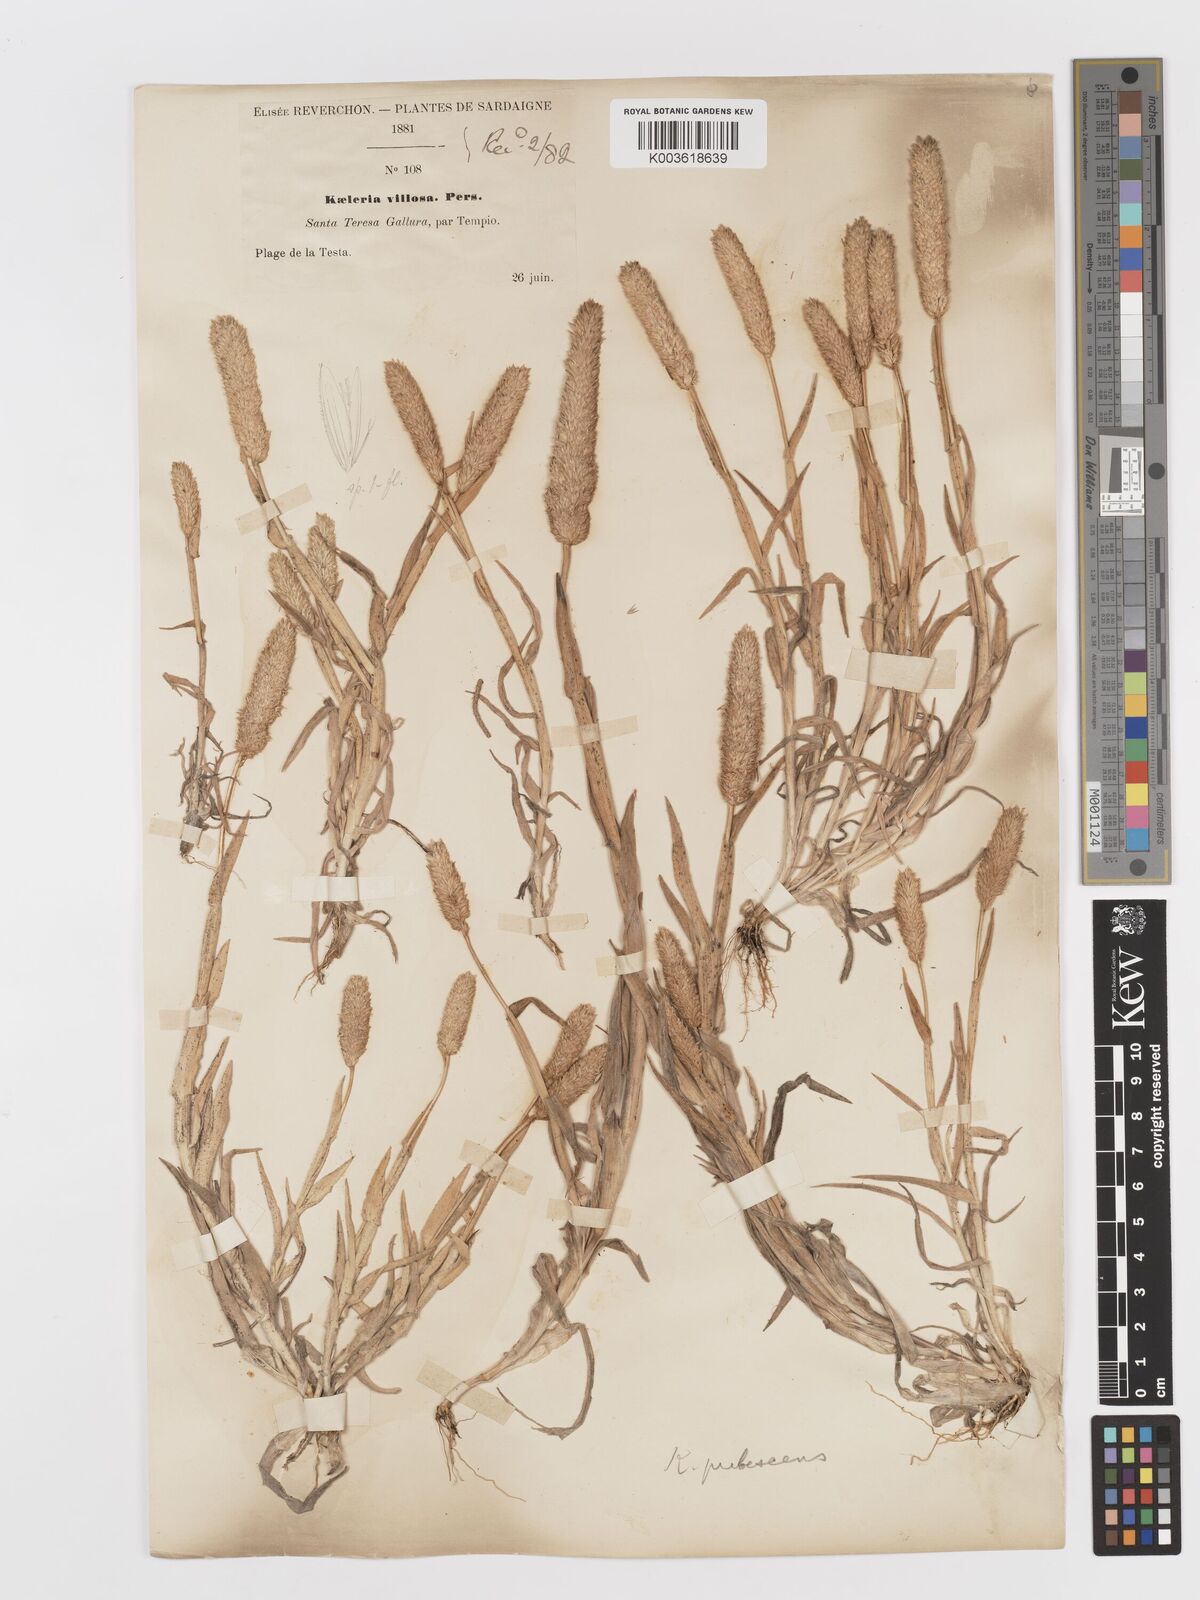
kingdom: Plantae
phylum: Tracheophyta
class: Liliopsida
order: Poales
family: Poaceae
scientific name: Poaceae
